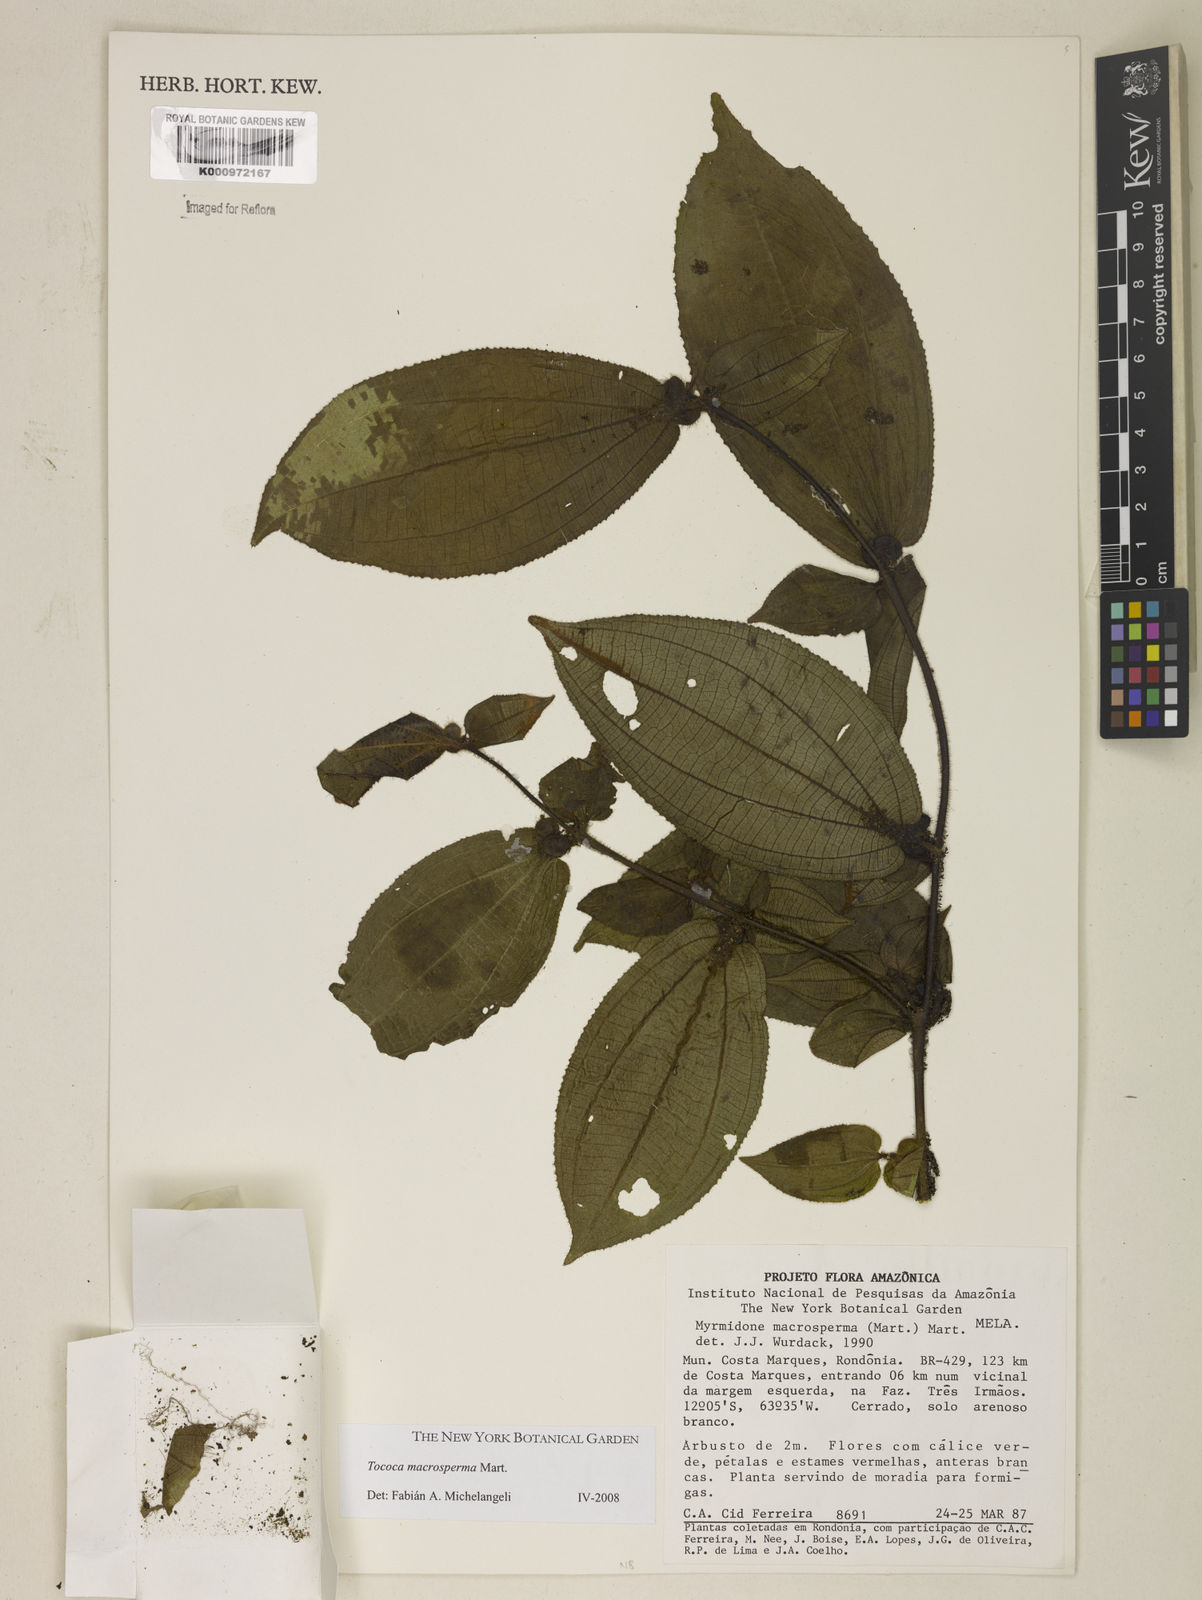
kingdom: Plantae
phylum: Tracheophyta
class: Magnoliopsida
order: Myrtales
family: Melastomataceae
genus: Miconia
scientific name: Miconia macrosperma
